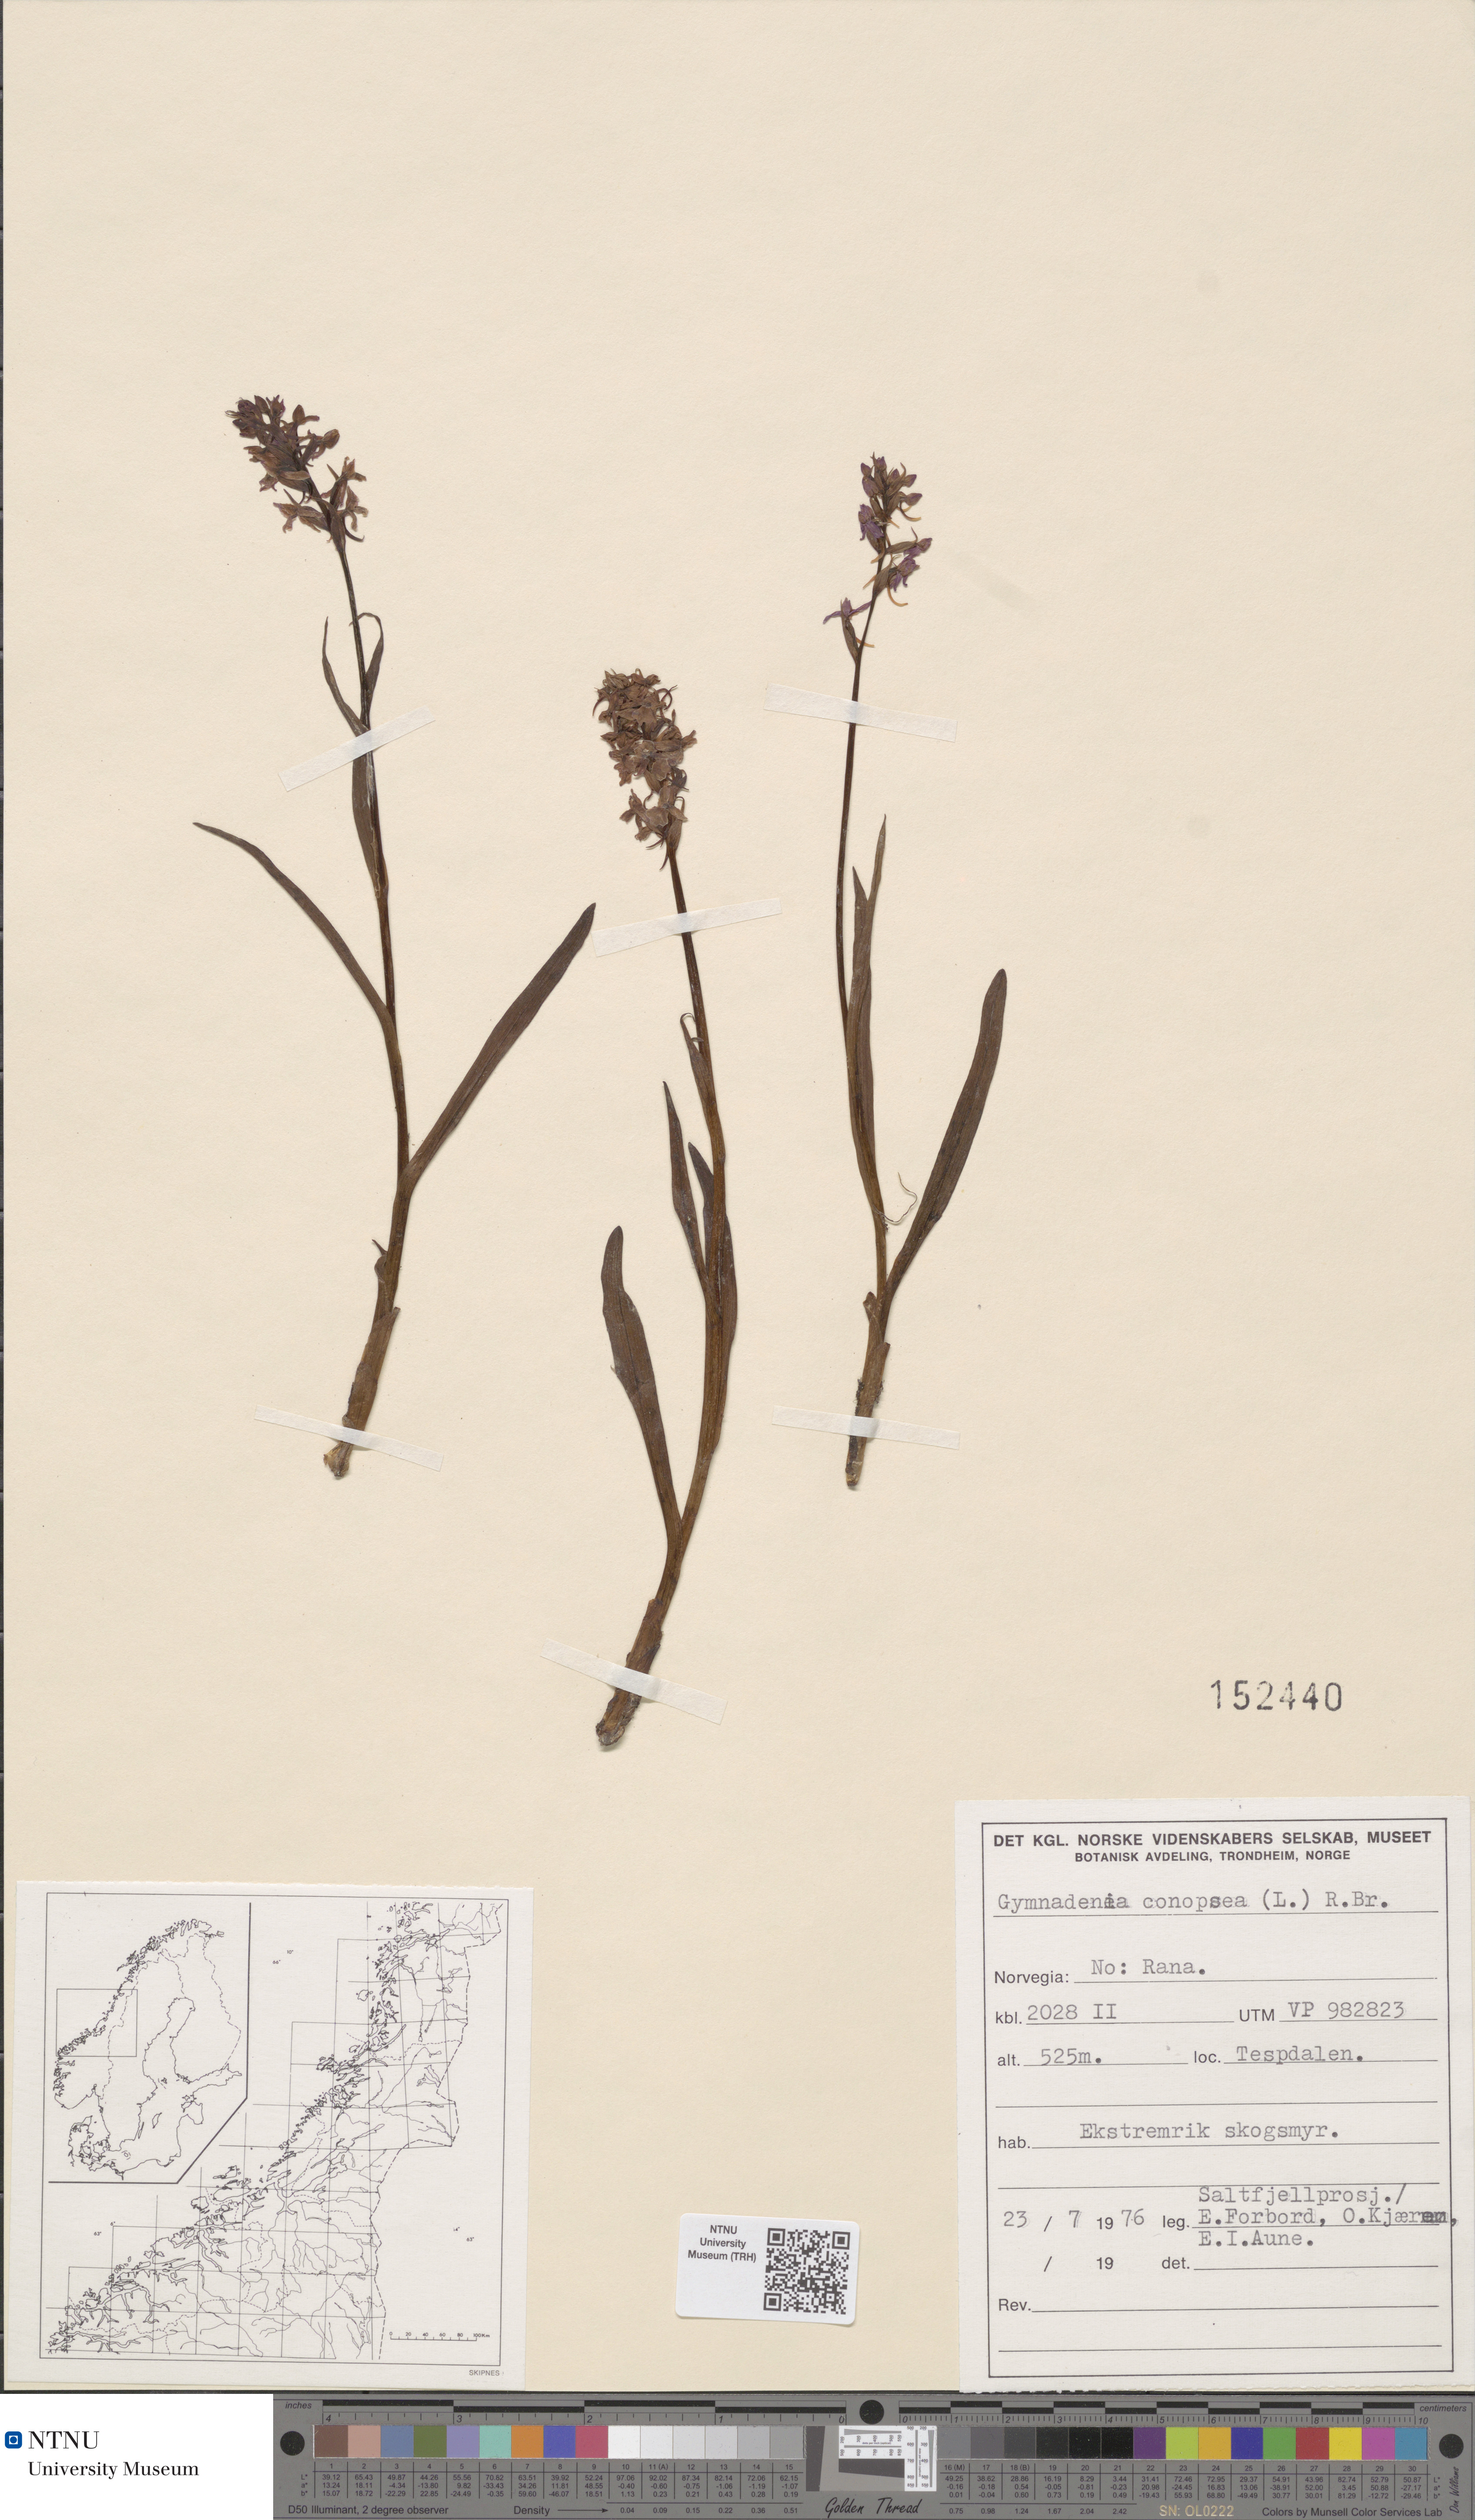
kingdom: Plantae
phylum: Tracheophyta
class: Liliopsida
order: Asparagales
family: Orchidaceae
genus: Gymnadenia
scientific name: Gymnadenia conopsea
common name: Fragrant orchid
